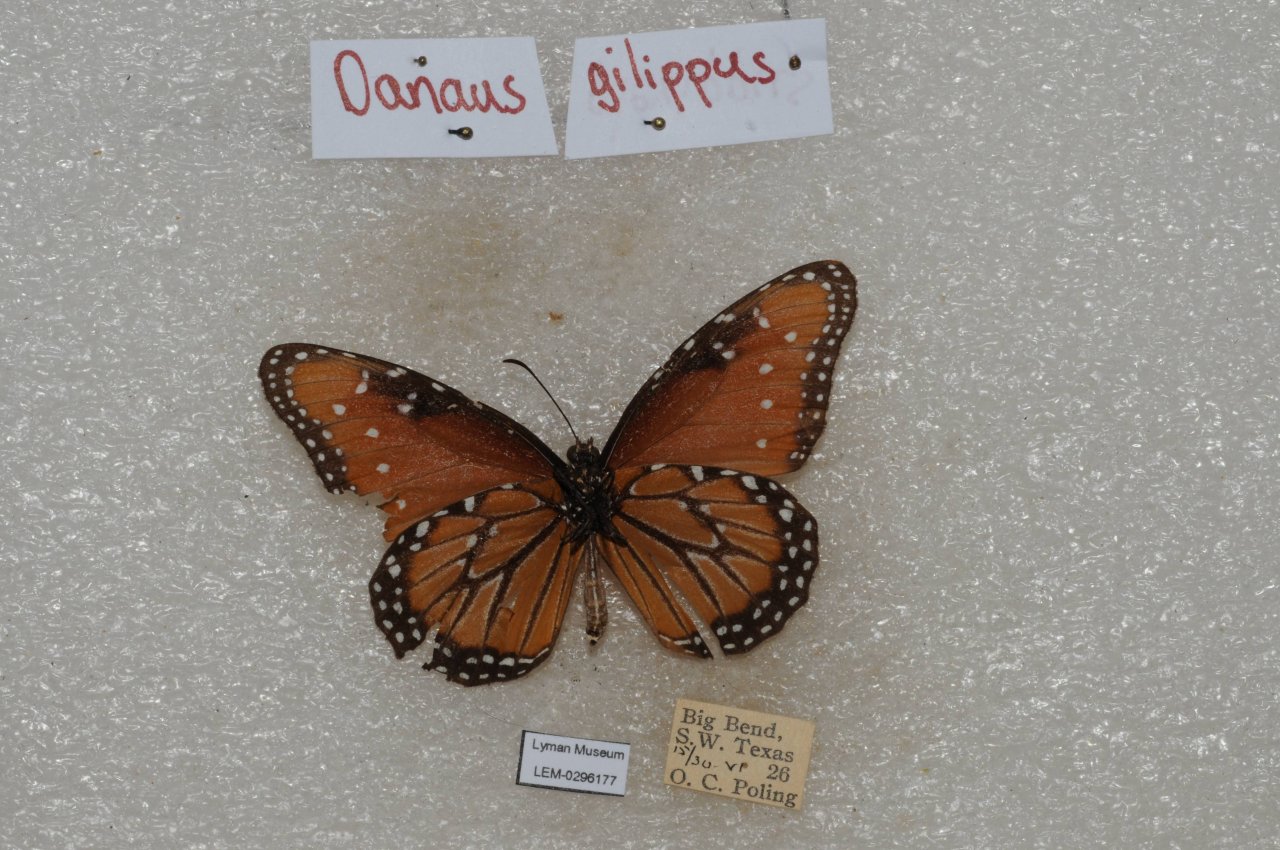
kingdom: Animalia
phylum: Arthropoda
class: Insecta
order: Lepidoptera
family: Nymphalidae
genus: Danaus
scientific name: Danaus gilippus
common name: Queen
